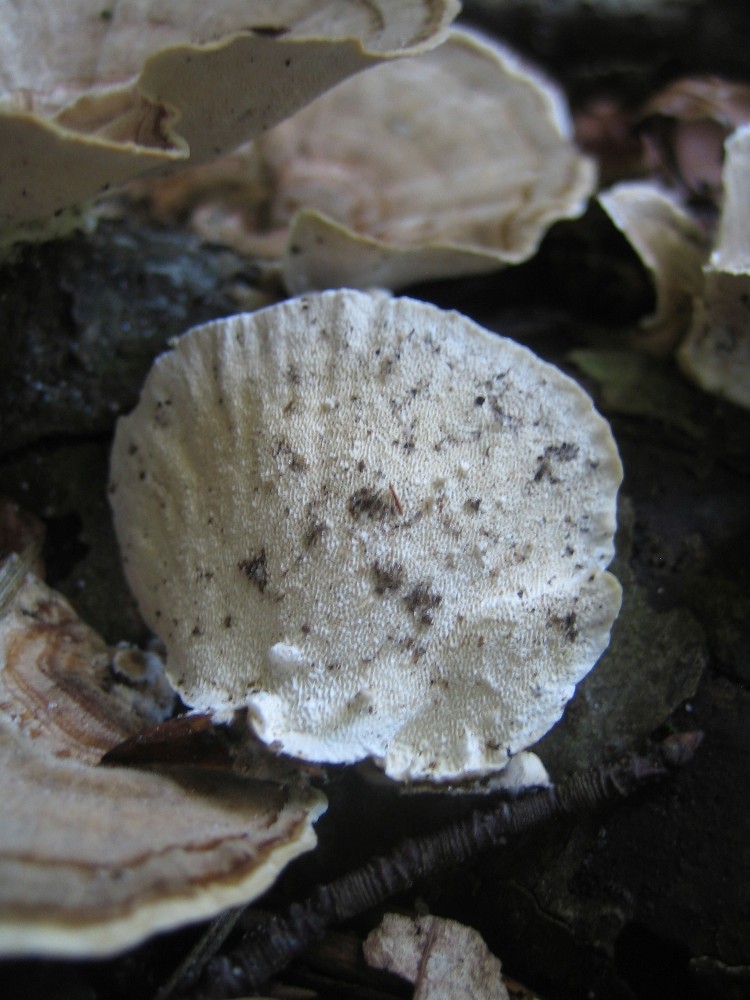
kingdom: Fungi
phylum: Basidiomycota
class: Agaricomycetes
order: Polyporales
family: Polyporaceae
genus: Trametes
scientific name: Trametes versicolor
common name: broget læderporesvamp
